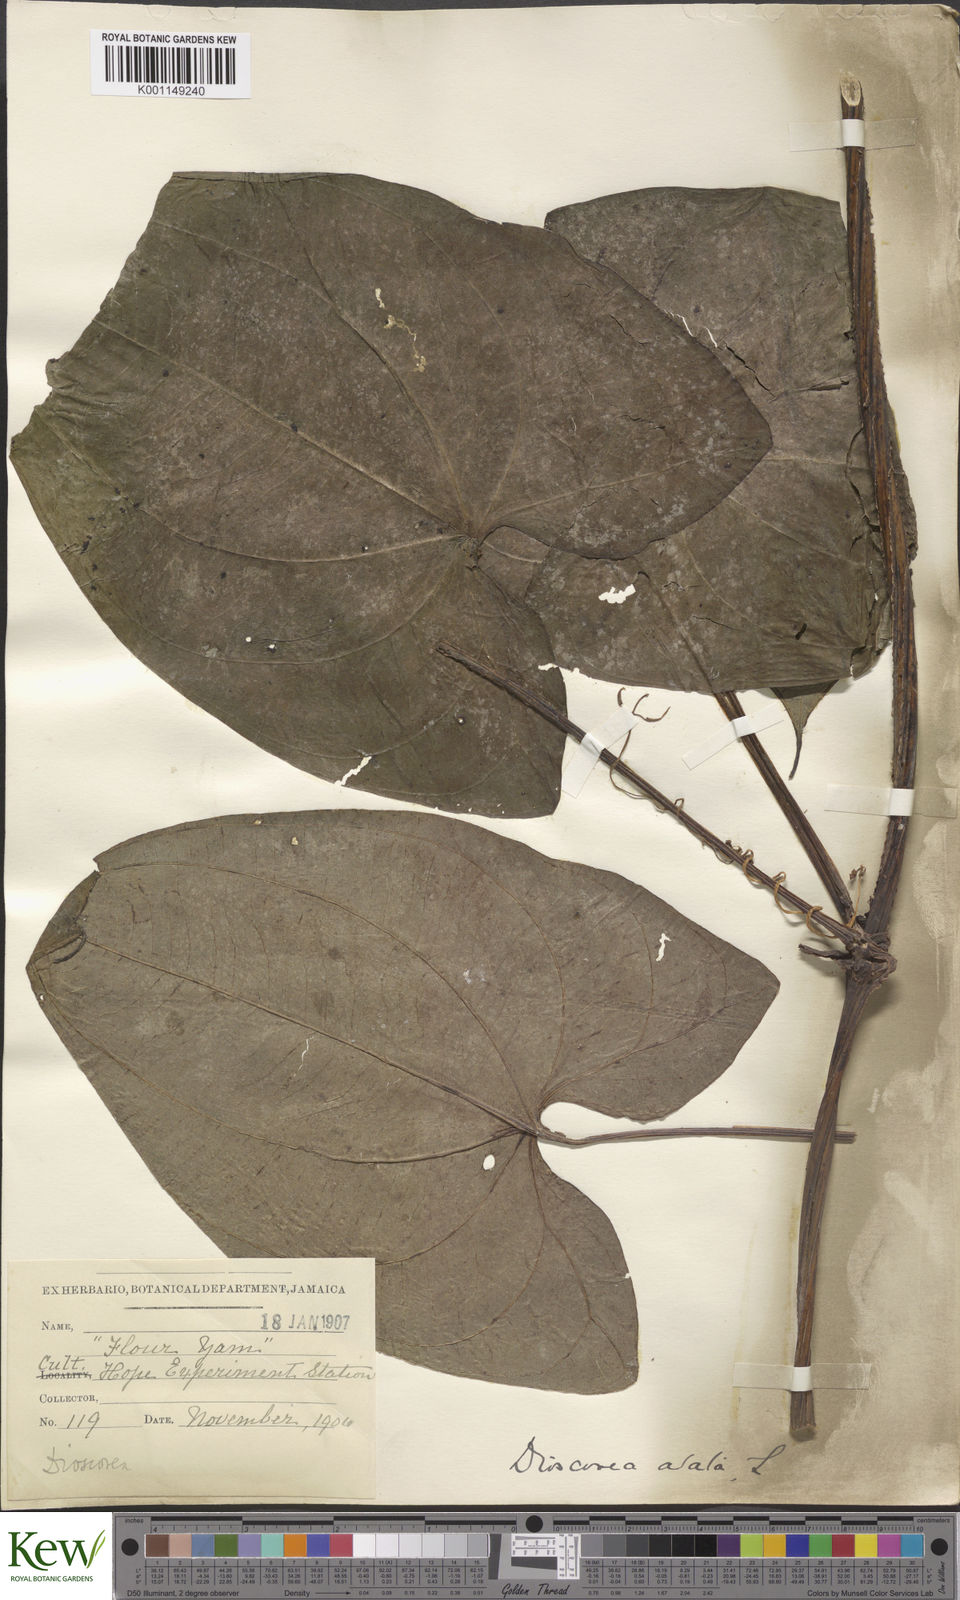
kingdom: Plantae
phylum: Tracheophyta
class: Liliopsida
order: Dioscoreales
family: Dioscoreaceae
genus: Dioscorea
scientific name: Dioscorea alata
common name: Water yam
